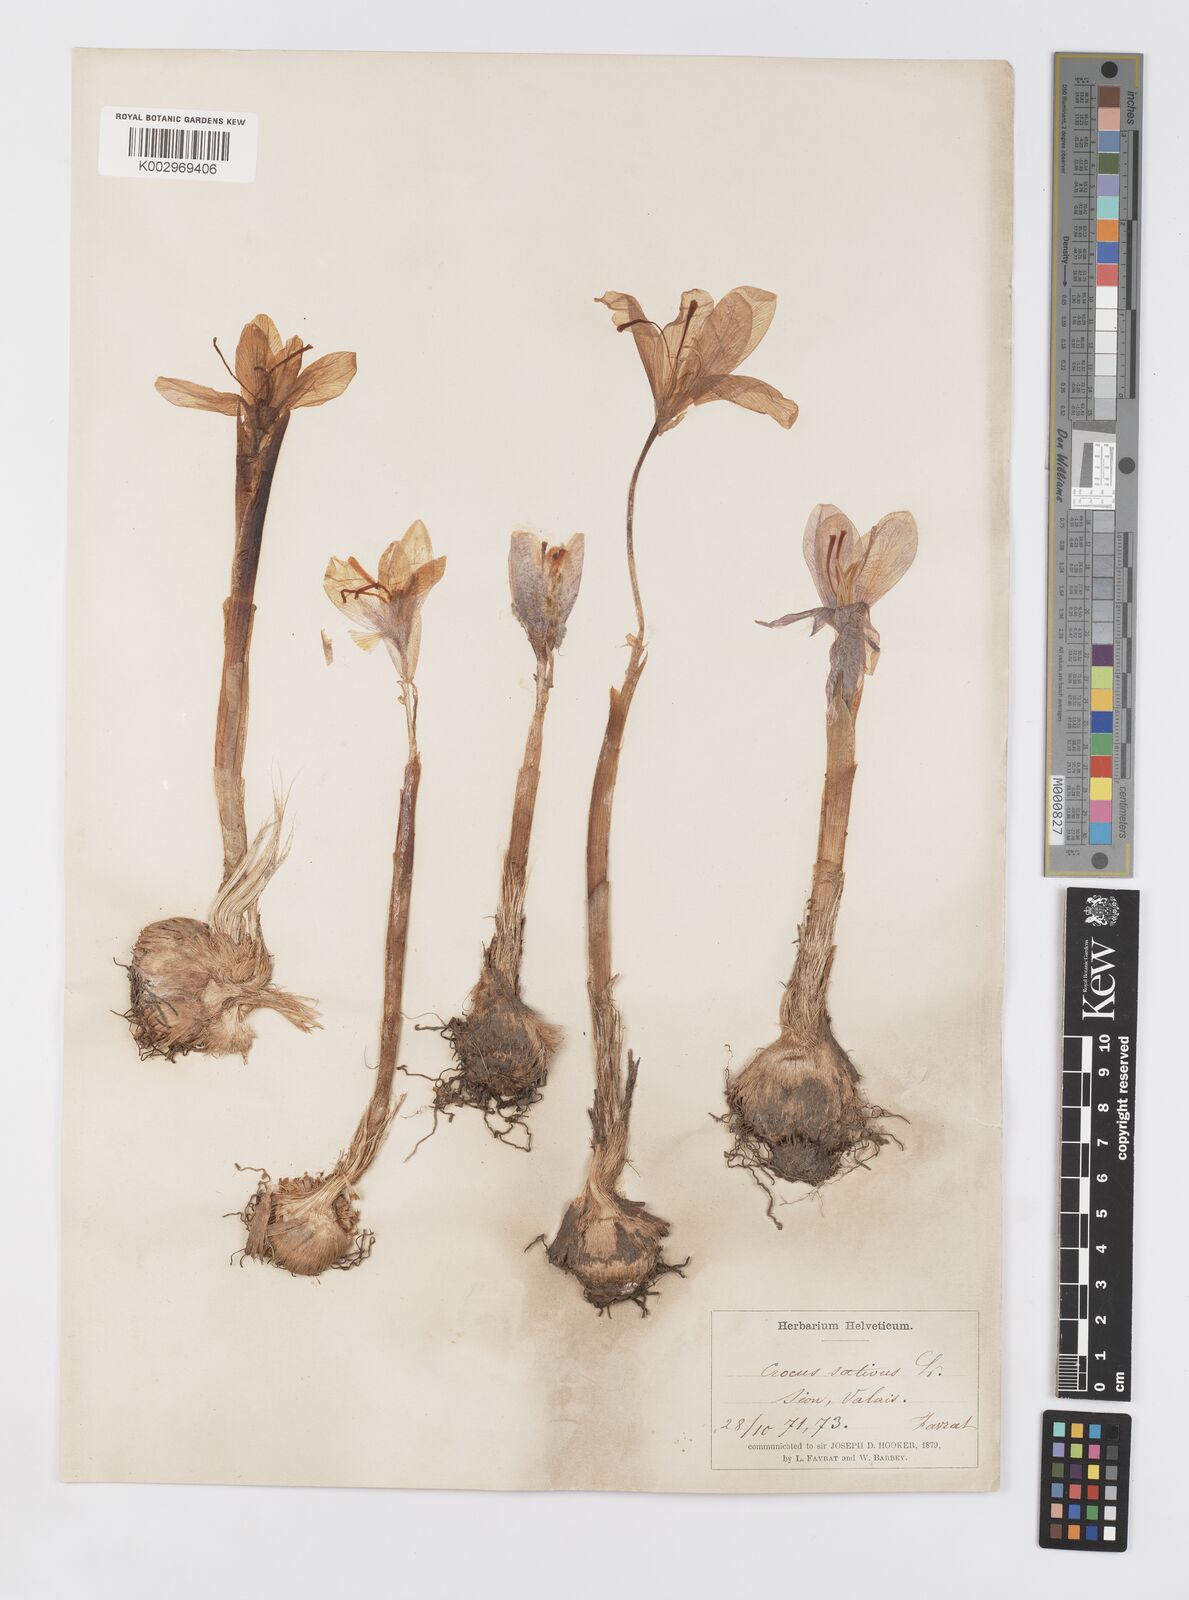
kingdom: Plantae
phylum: Tracheophyta
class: Liliopsida
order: Asparagales
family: Iridaceae
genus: Crocus
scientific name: Crocus sativus
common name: Saffron crocus
